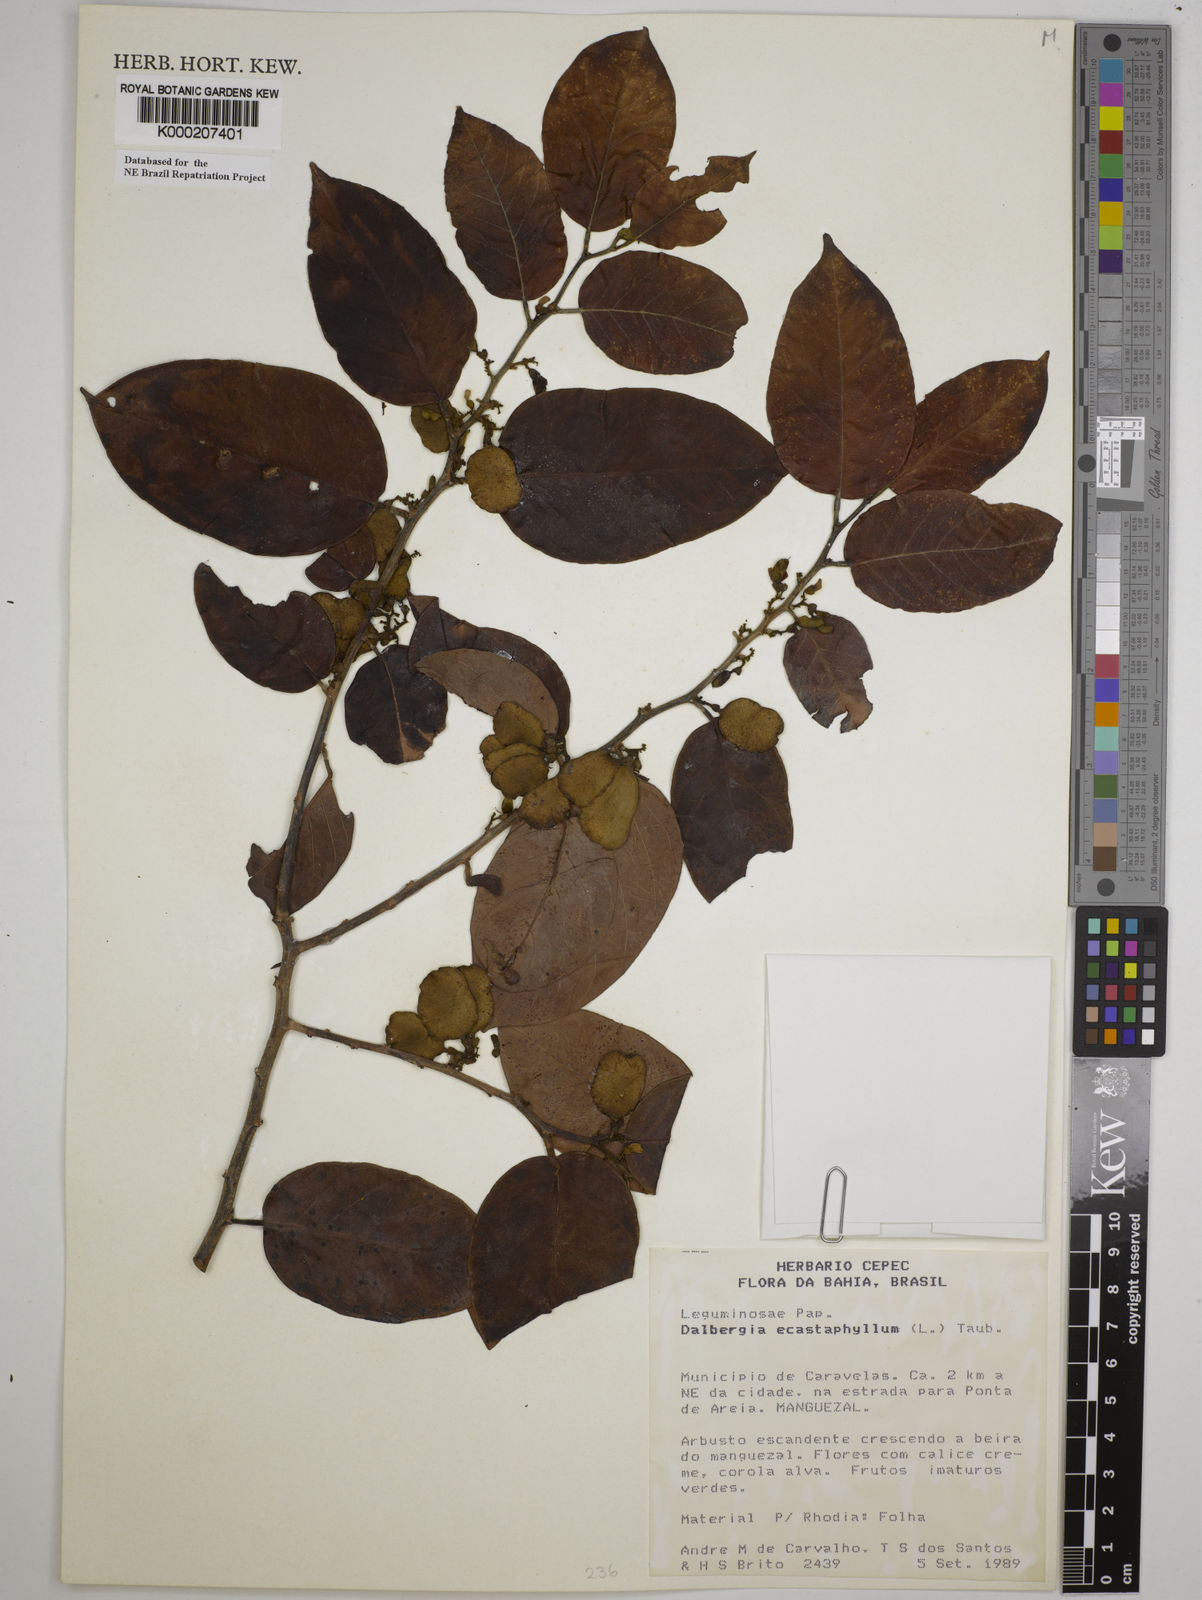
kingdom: Plantae
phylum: Tracheophyta
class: Magnoliopsida
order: Fabales
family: Fabaceae
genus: Dalbergia
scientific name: Dalbergia
